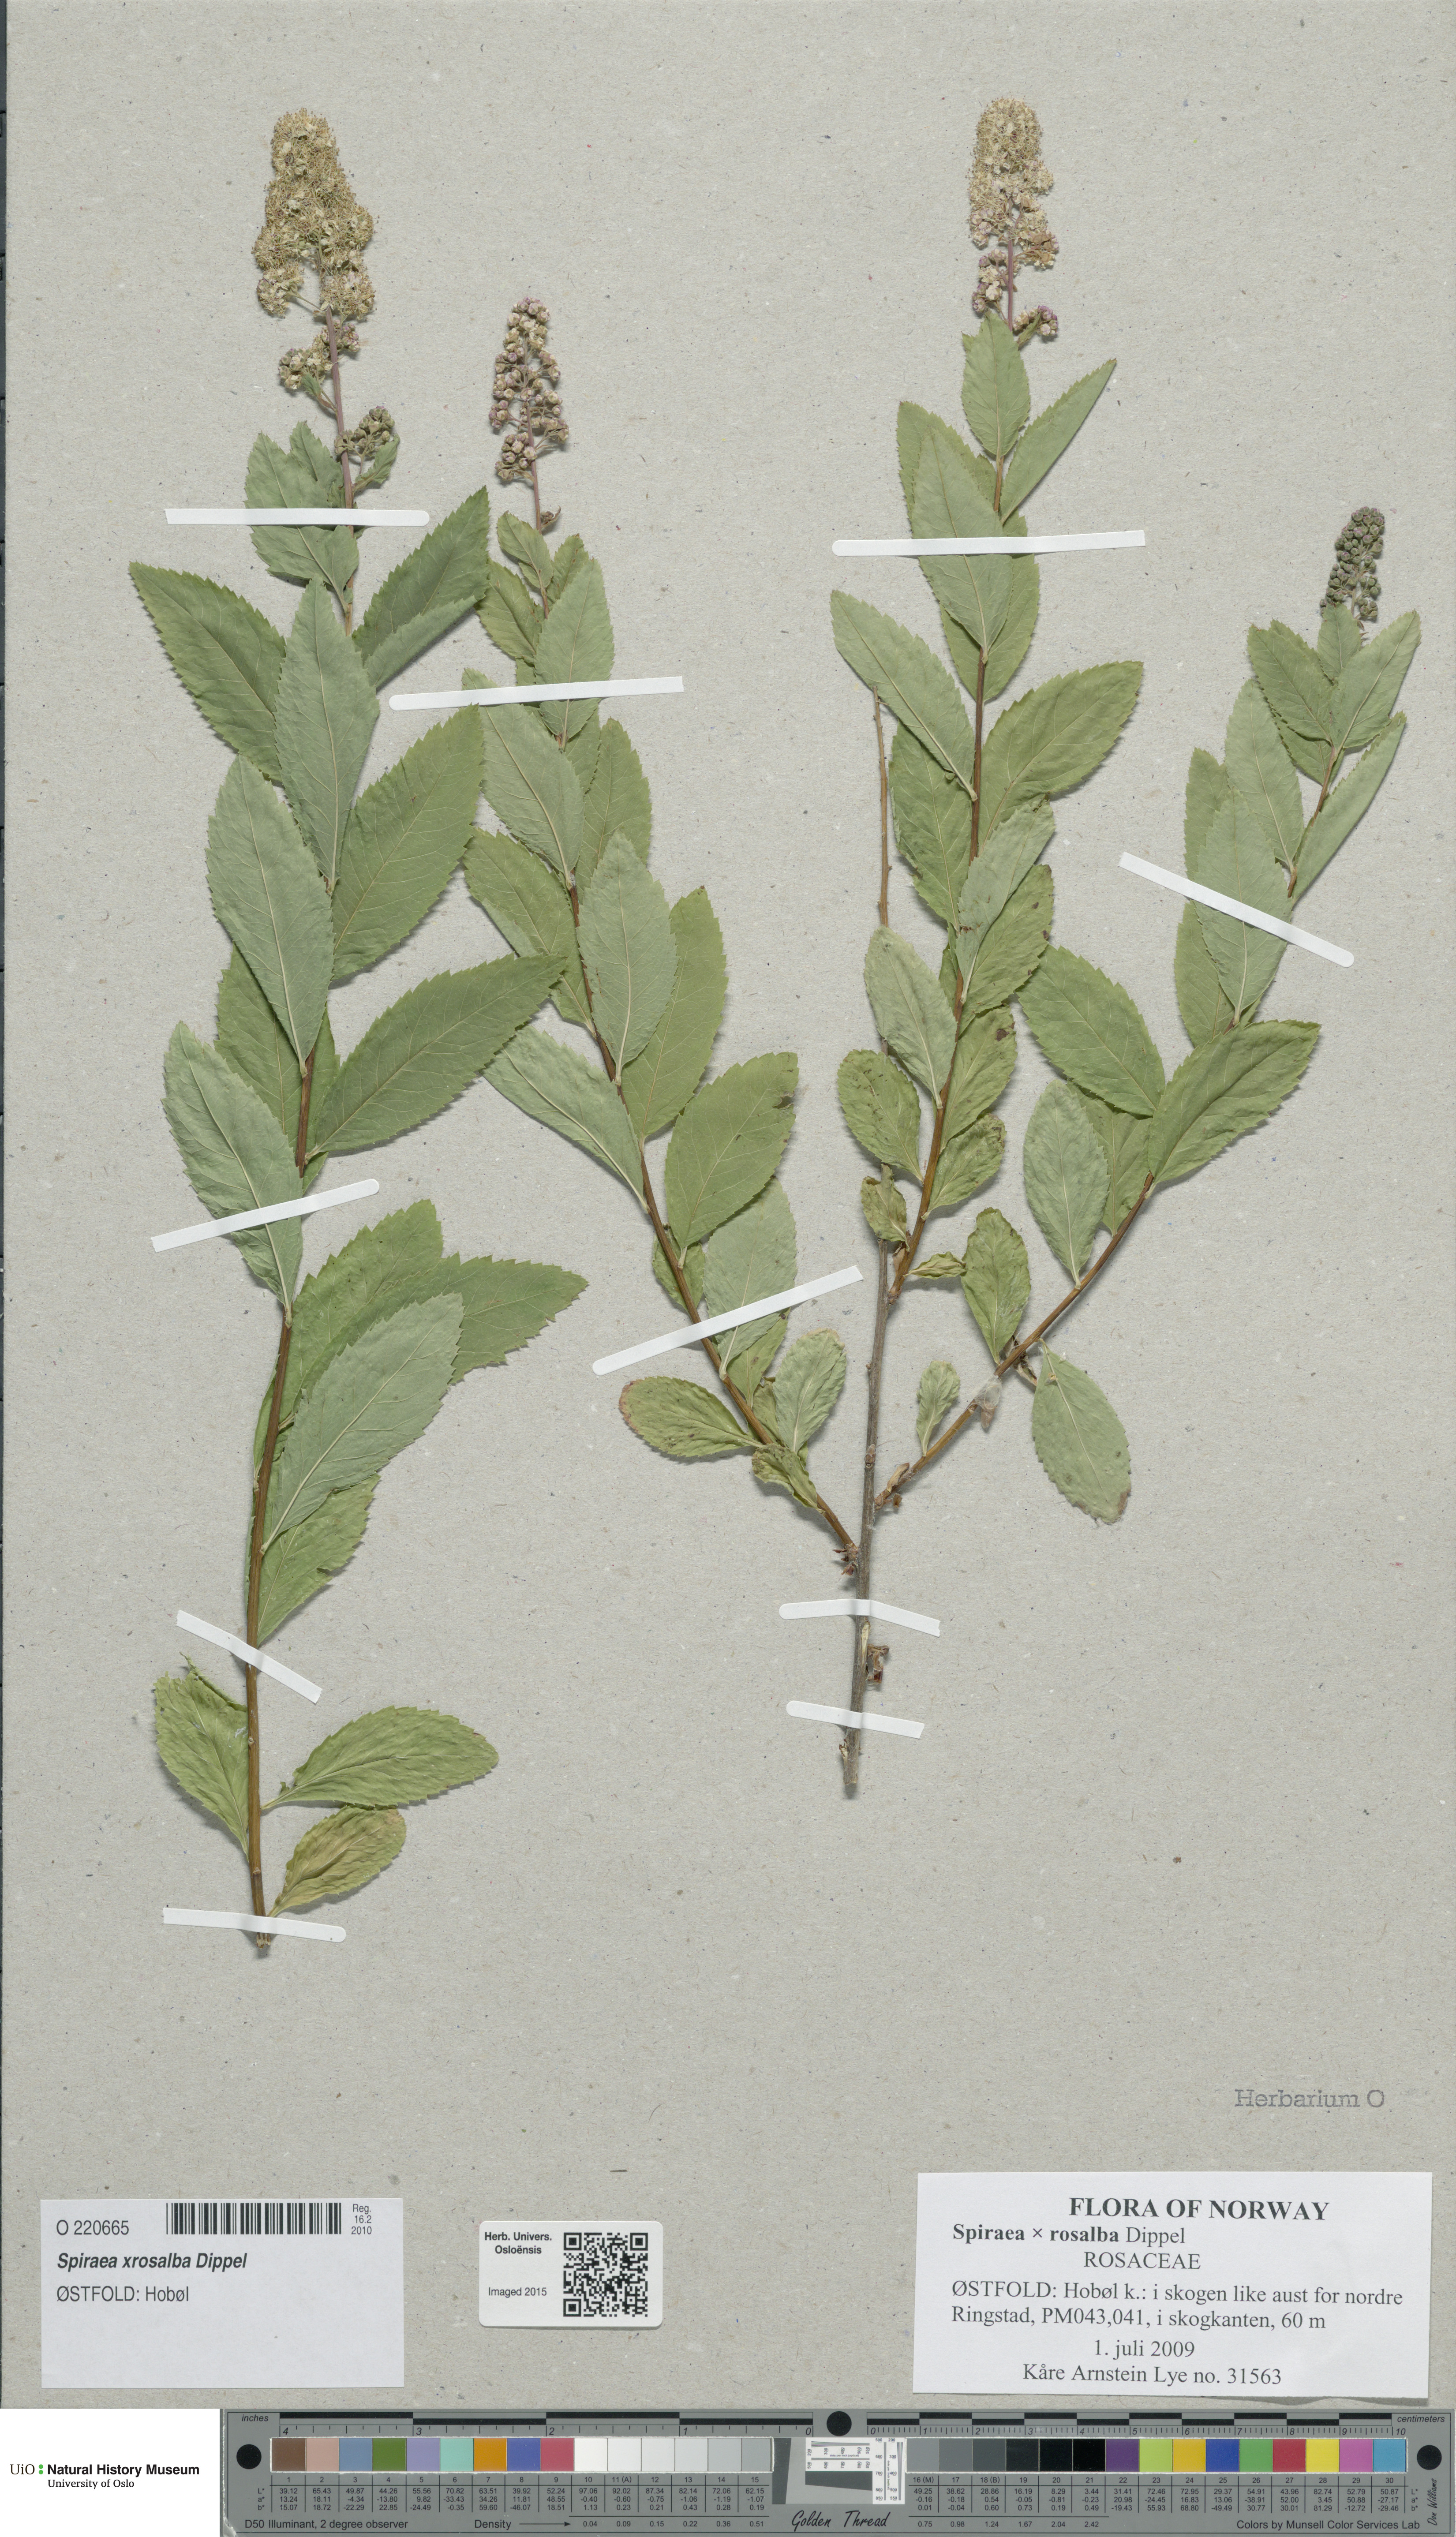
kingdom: Plantae
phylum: Tracheophyta
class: Magnoliopsida
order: Rosales
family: Rosaceae
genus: Spiraea
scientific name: Spiraea rosalba
